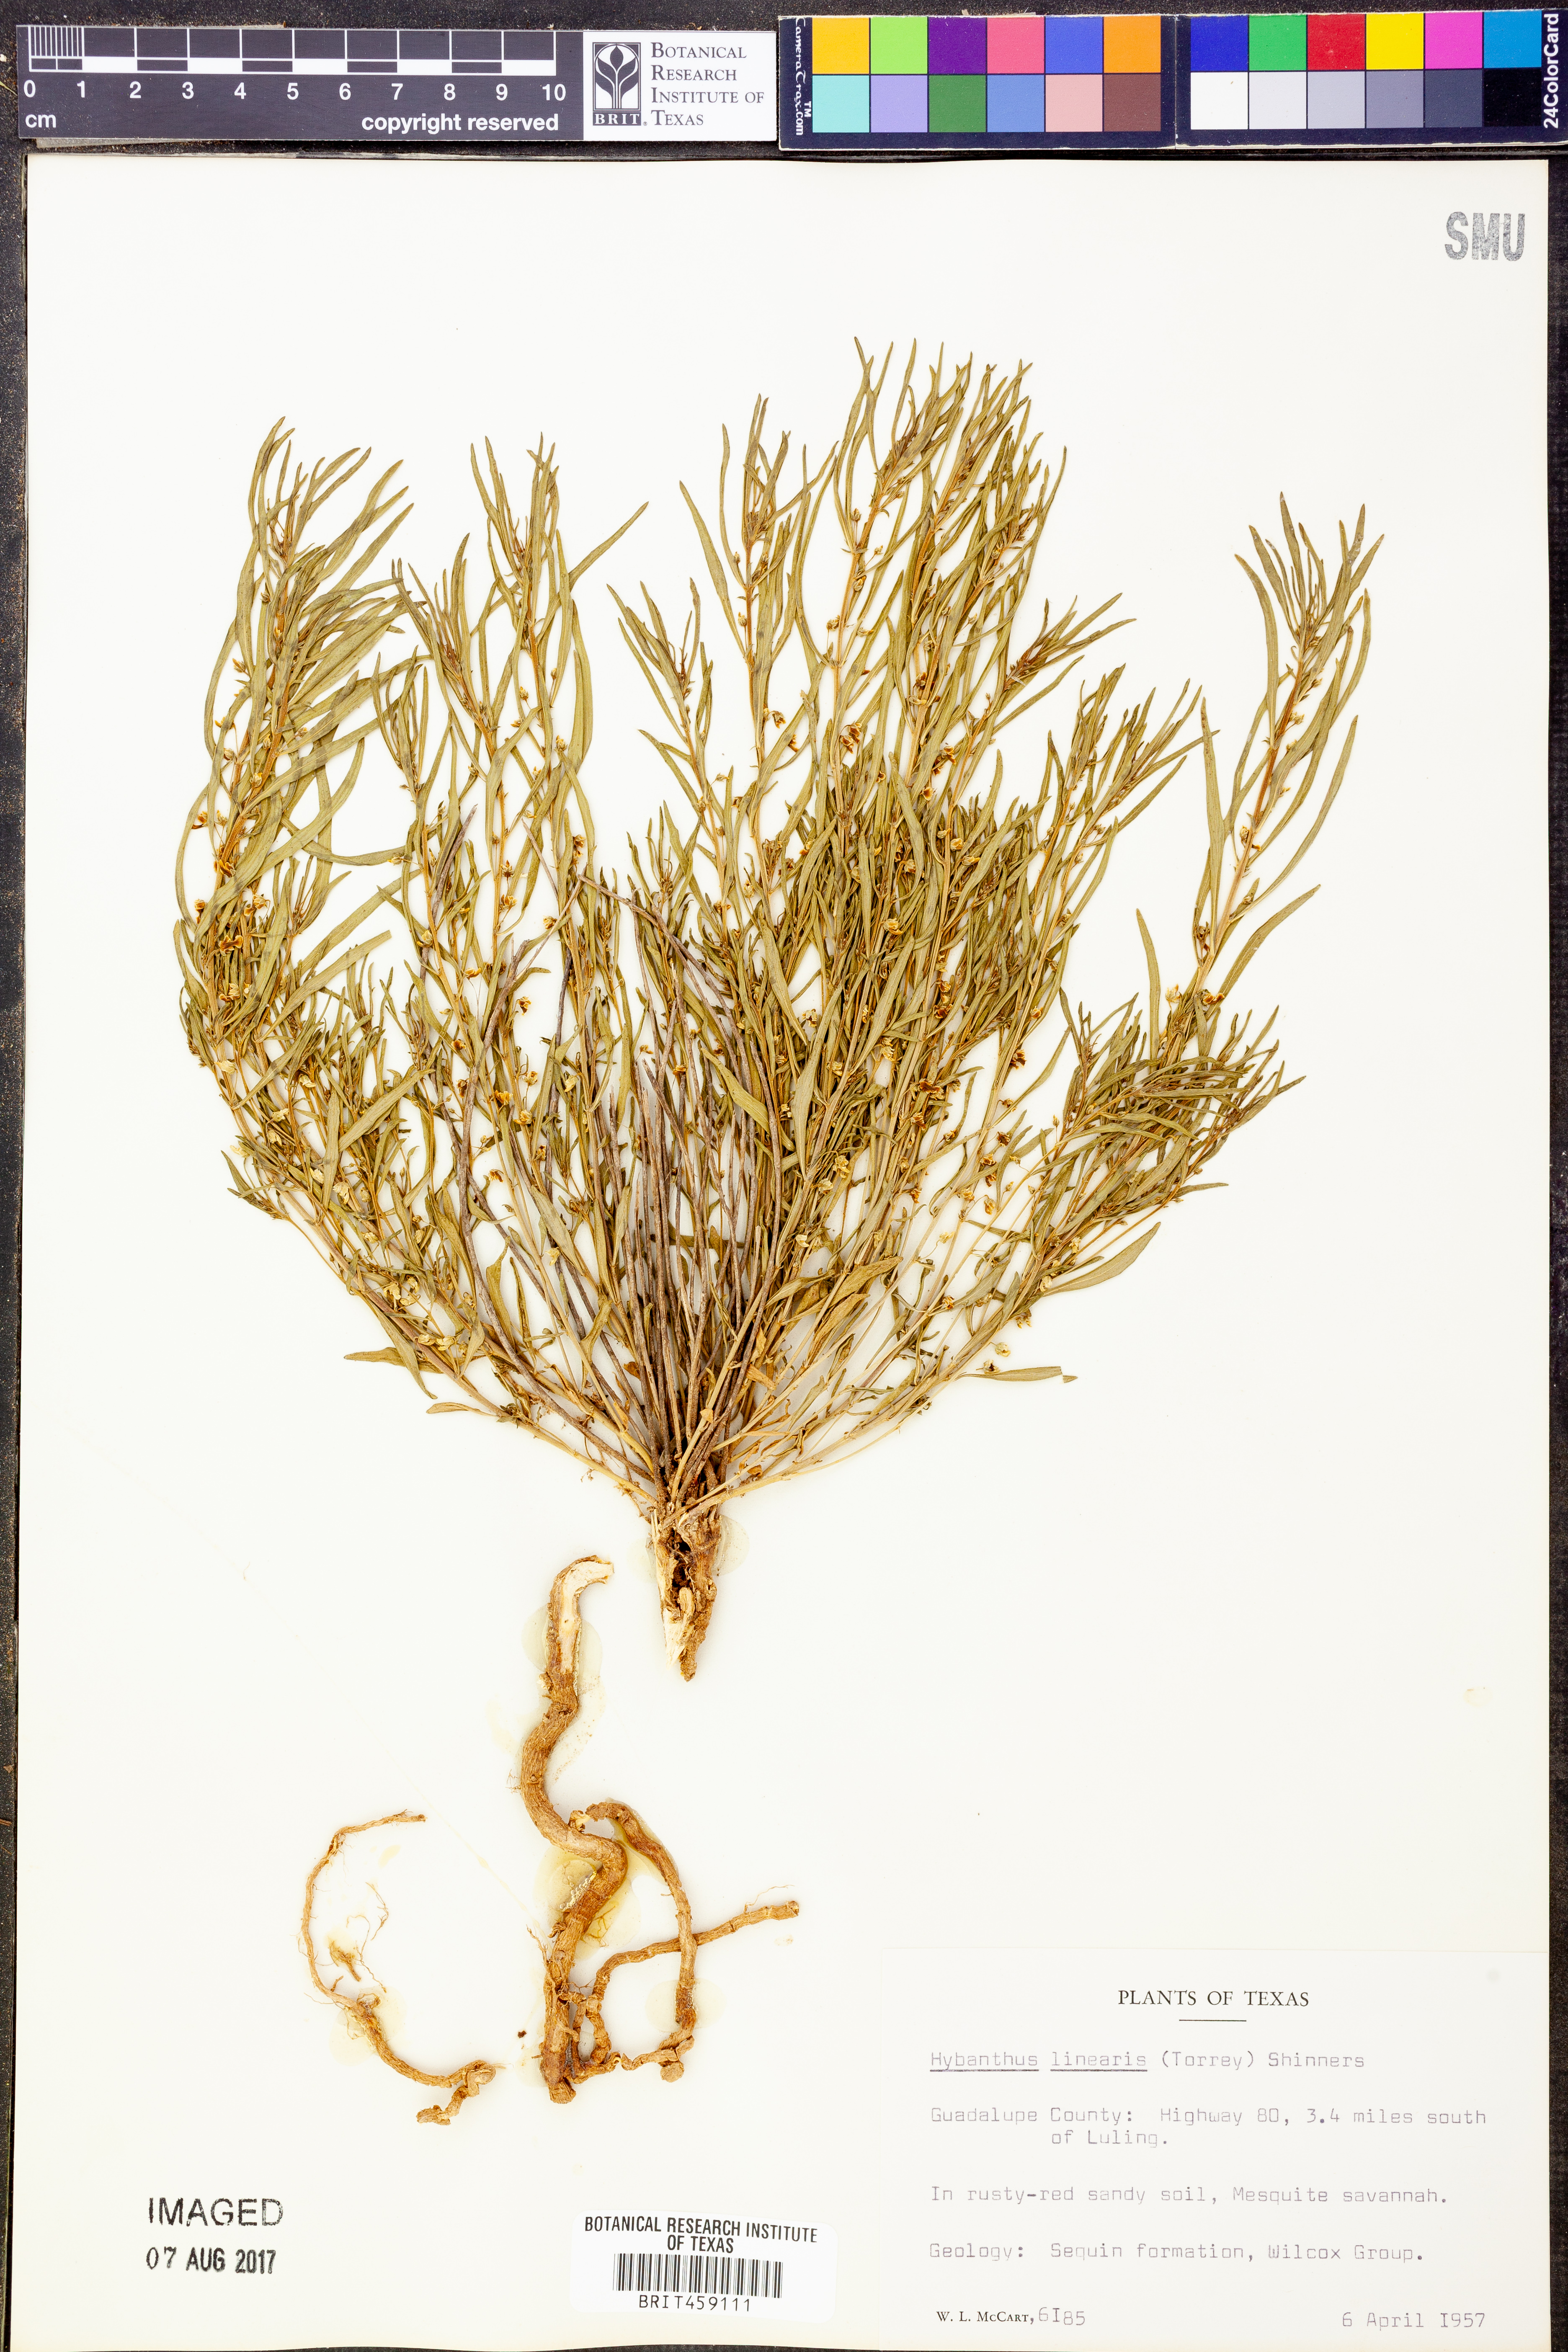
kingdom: Plantae
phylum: Tracheophyta
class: Magnoliopsida
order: Malpighiales
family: Violaceae
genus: Pombalia
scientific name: Pombalia verticillata
